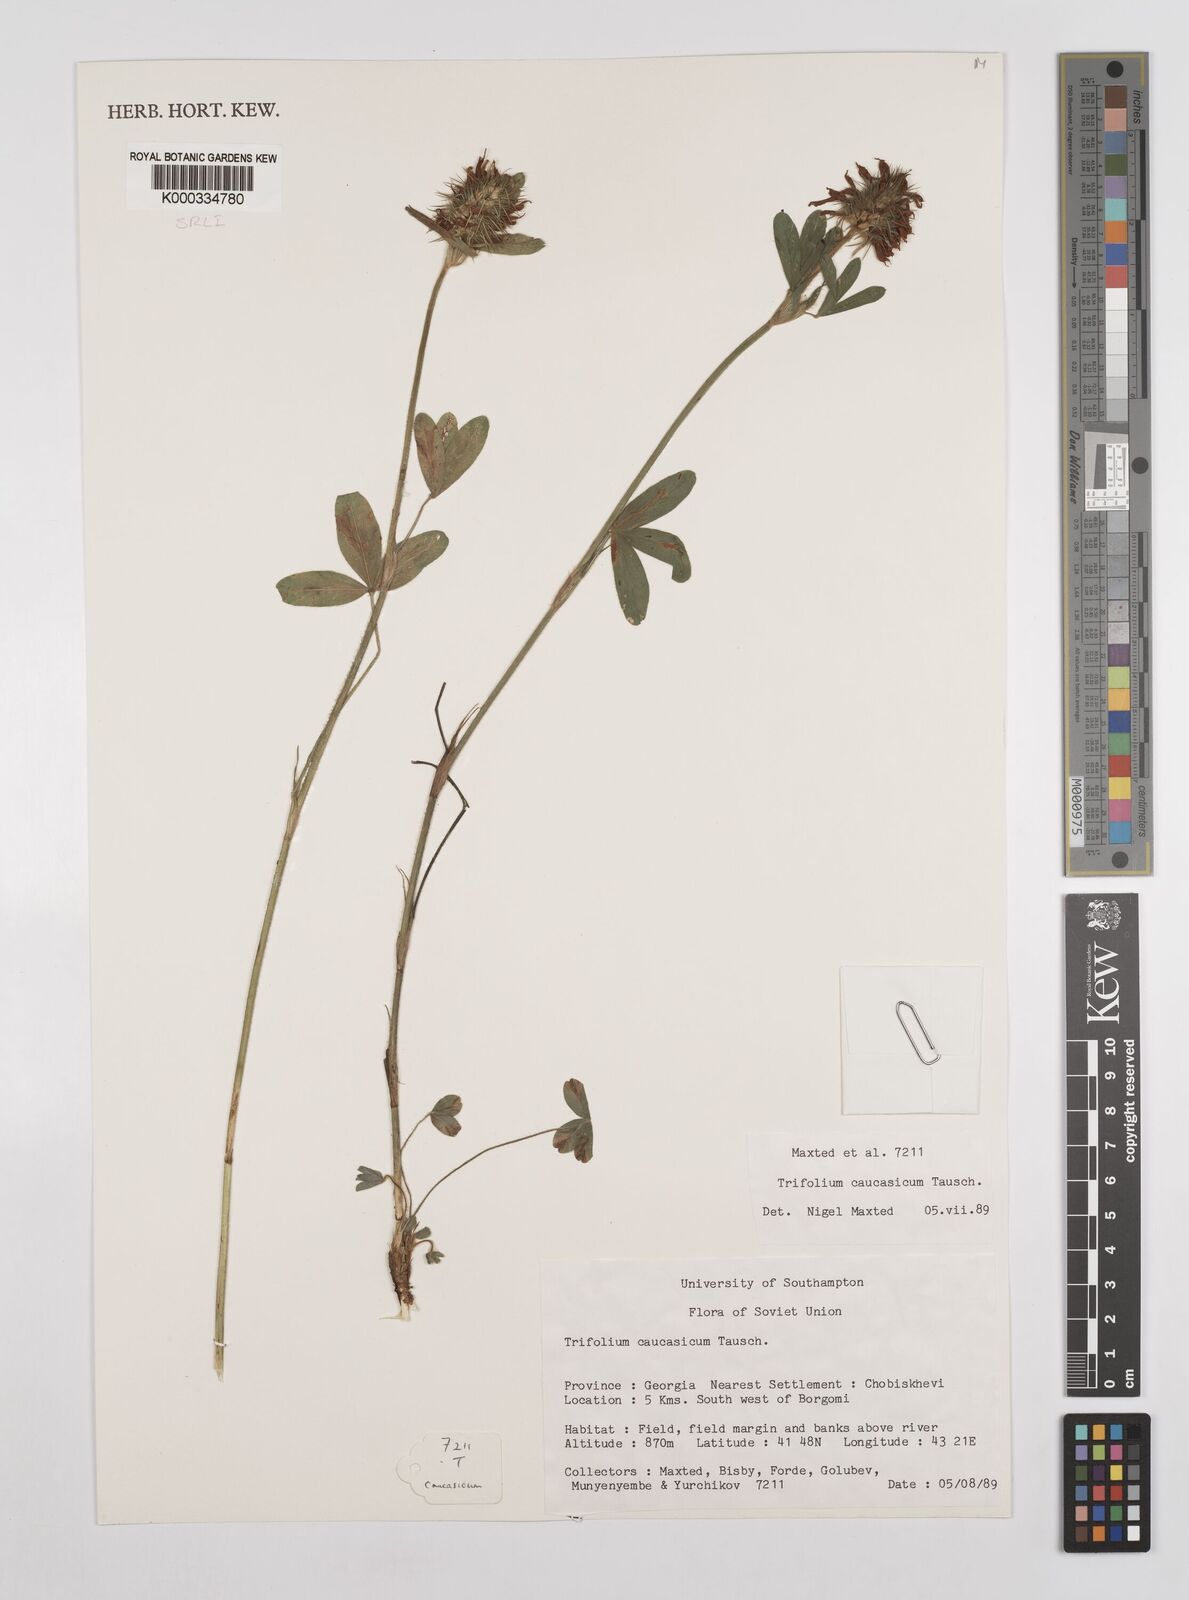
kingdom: Plantae
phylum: Tracheophyta
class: Magnoliopsida
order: Fabales
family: Fabaceae
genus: Trifolium
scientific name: Trifolium ochroleucon
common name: Sulphur clover
